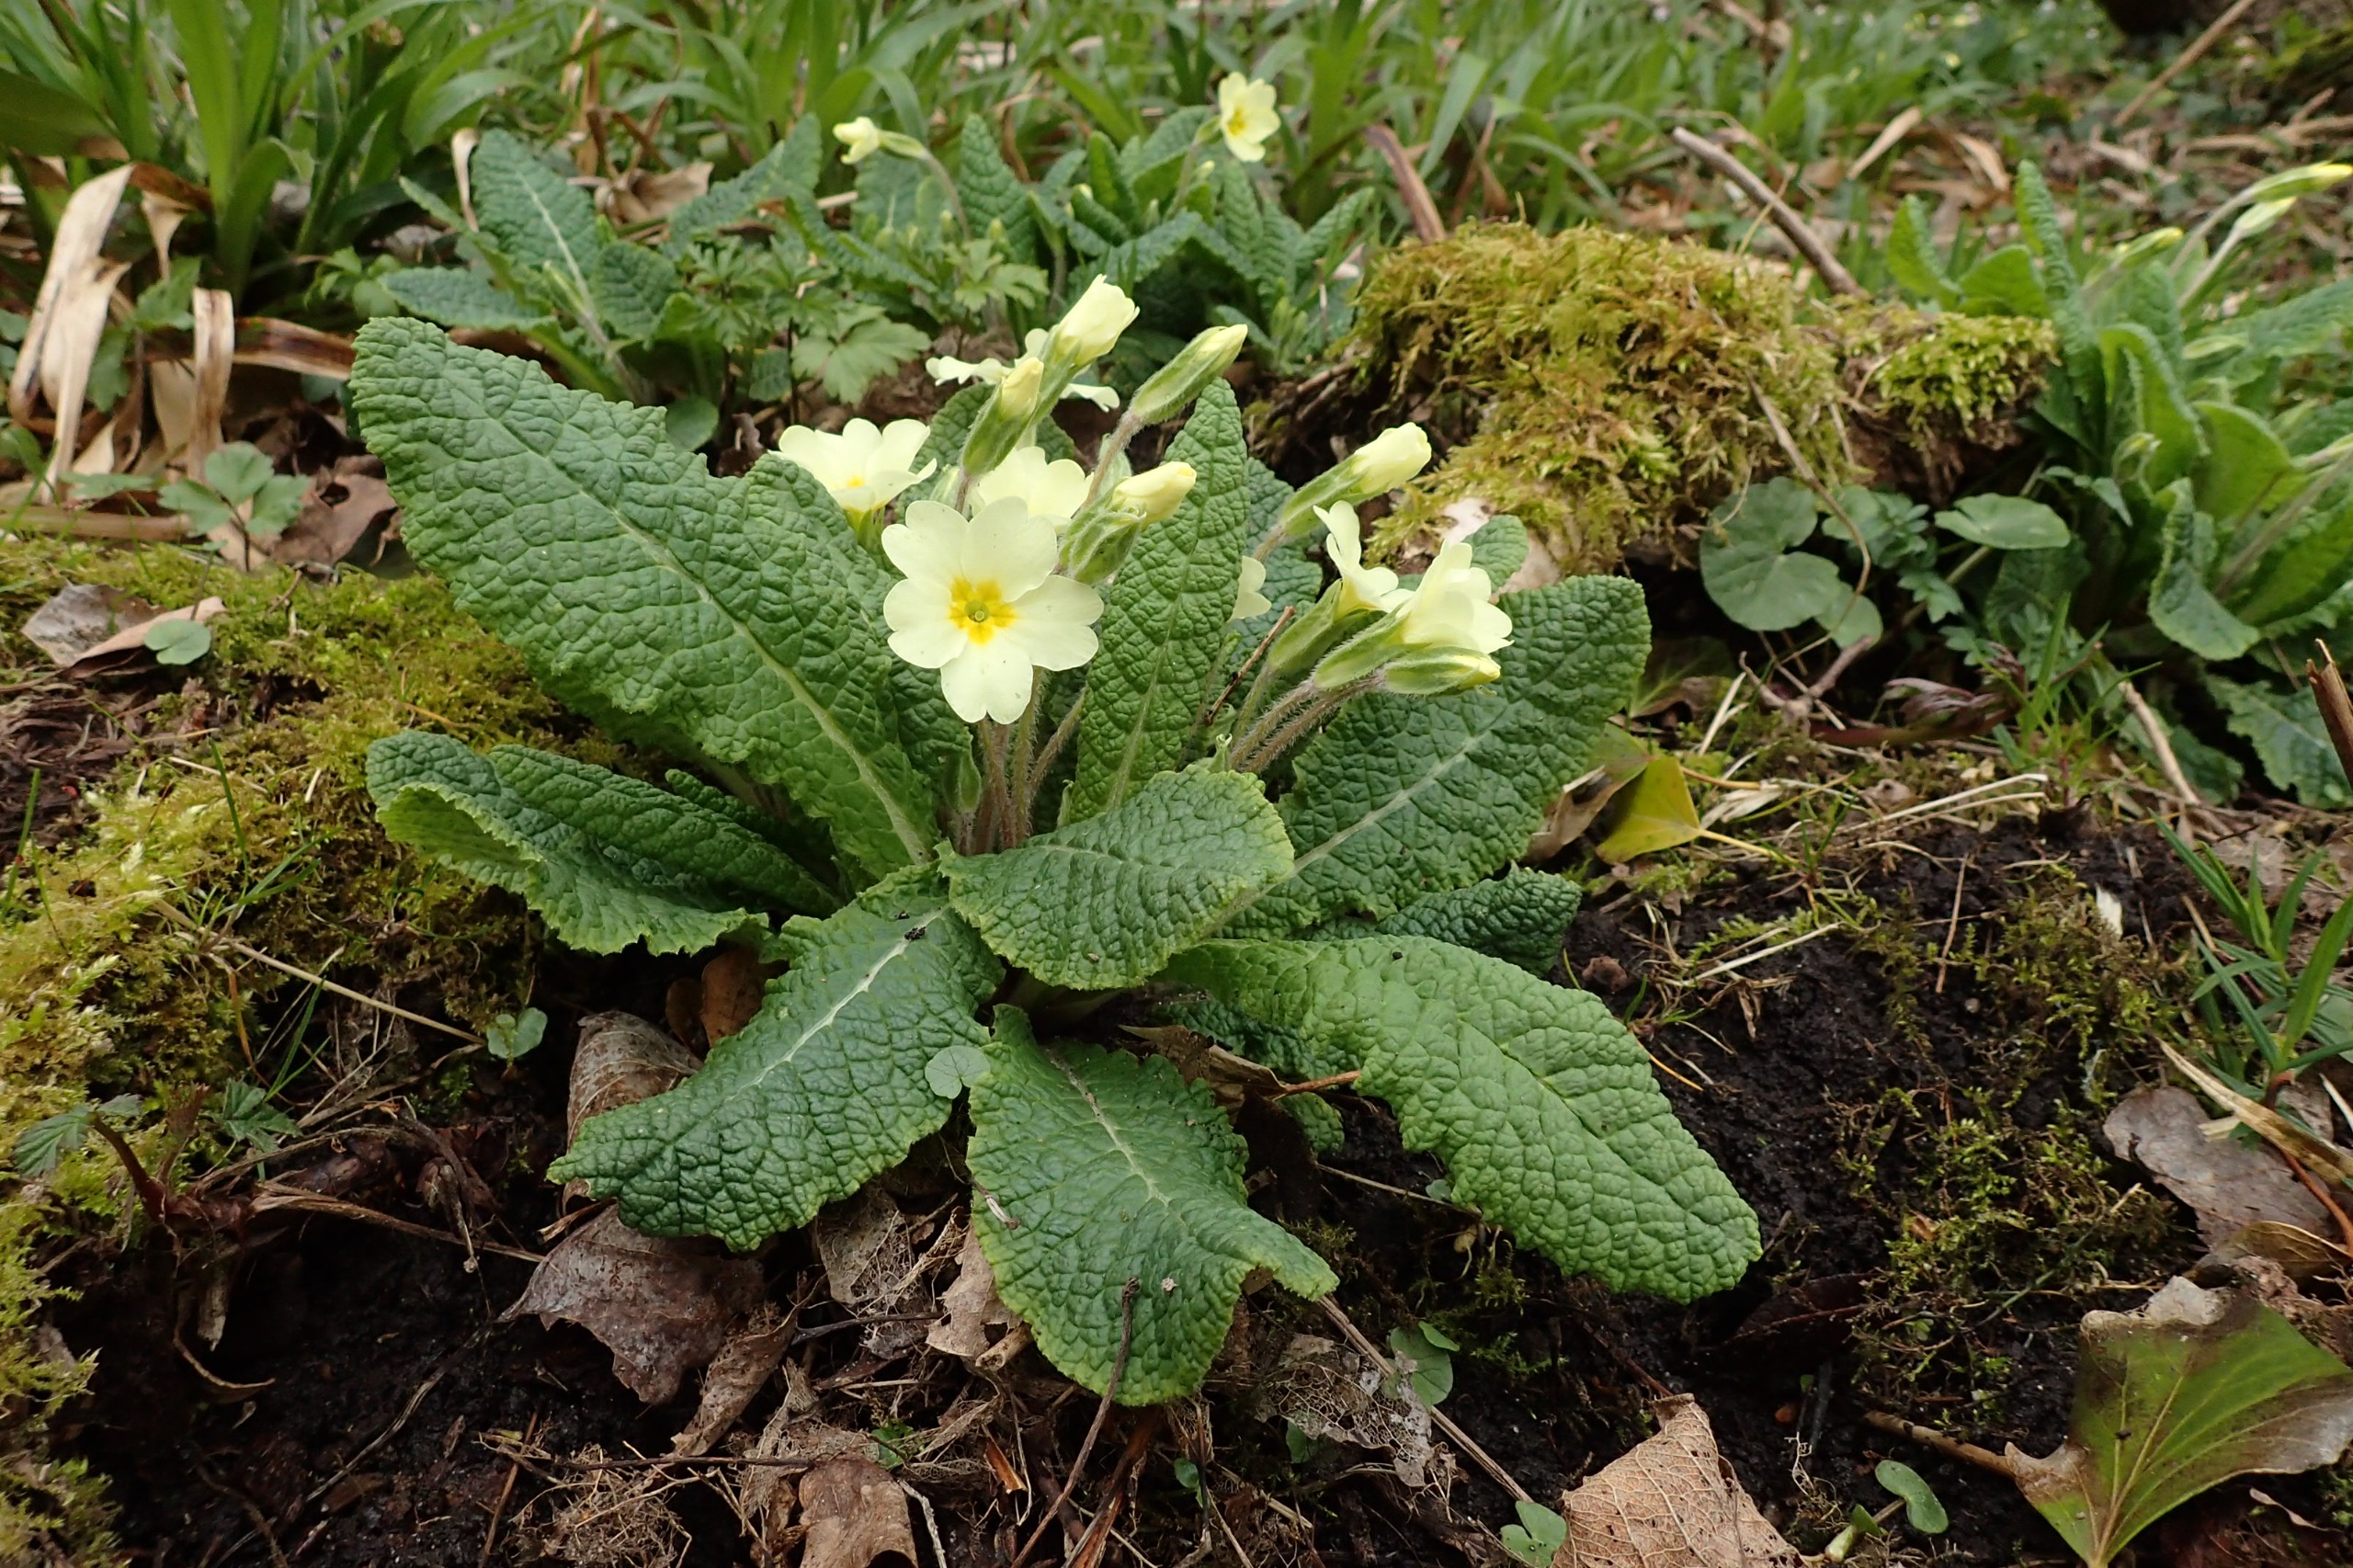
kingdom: Plantae
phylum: Tracheophyta
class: Magnoliopsida
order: Ericales
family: Primulaceae
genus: Primula
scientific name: Primula vulgaris
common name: Storblomstret kodriver
